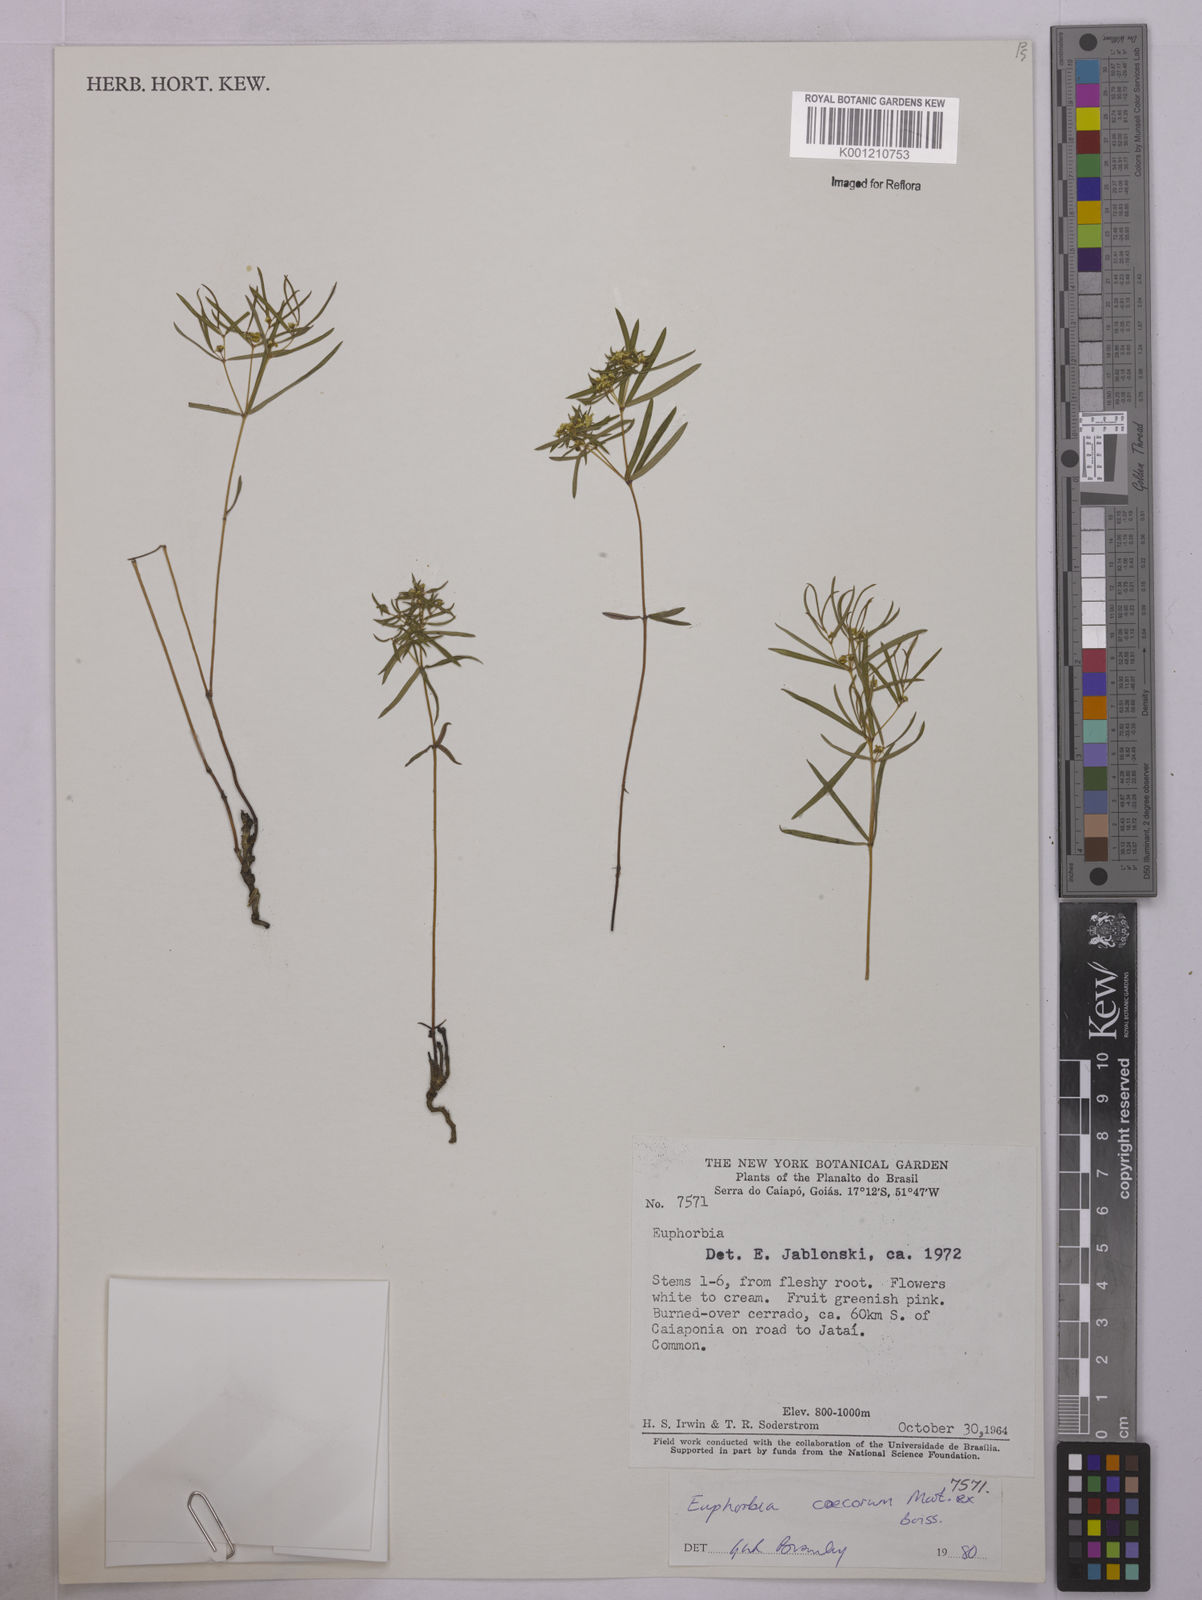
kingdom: Plantae
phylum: Tracheophyta
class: Magnoliopsida
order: Malpighiales
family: Euphorbiaceae
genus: Euphorbia
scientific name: Euphorbia potentilloides
